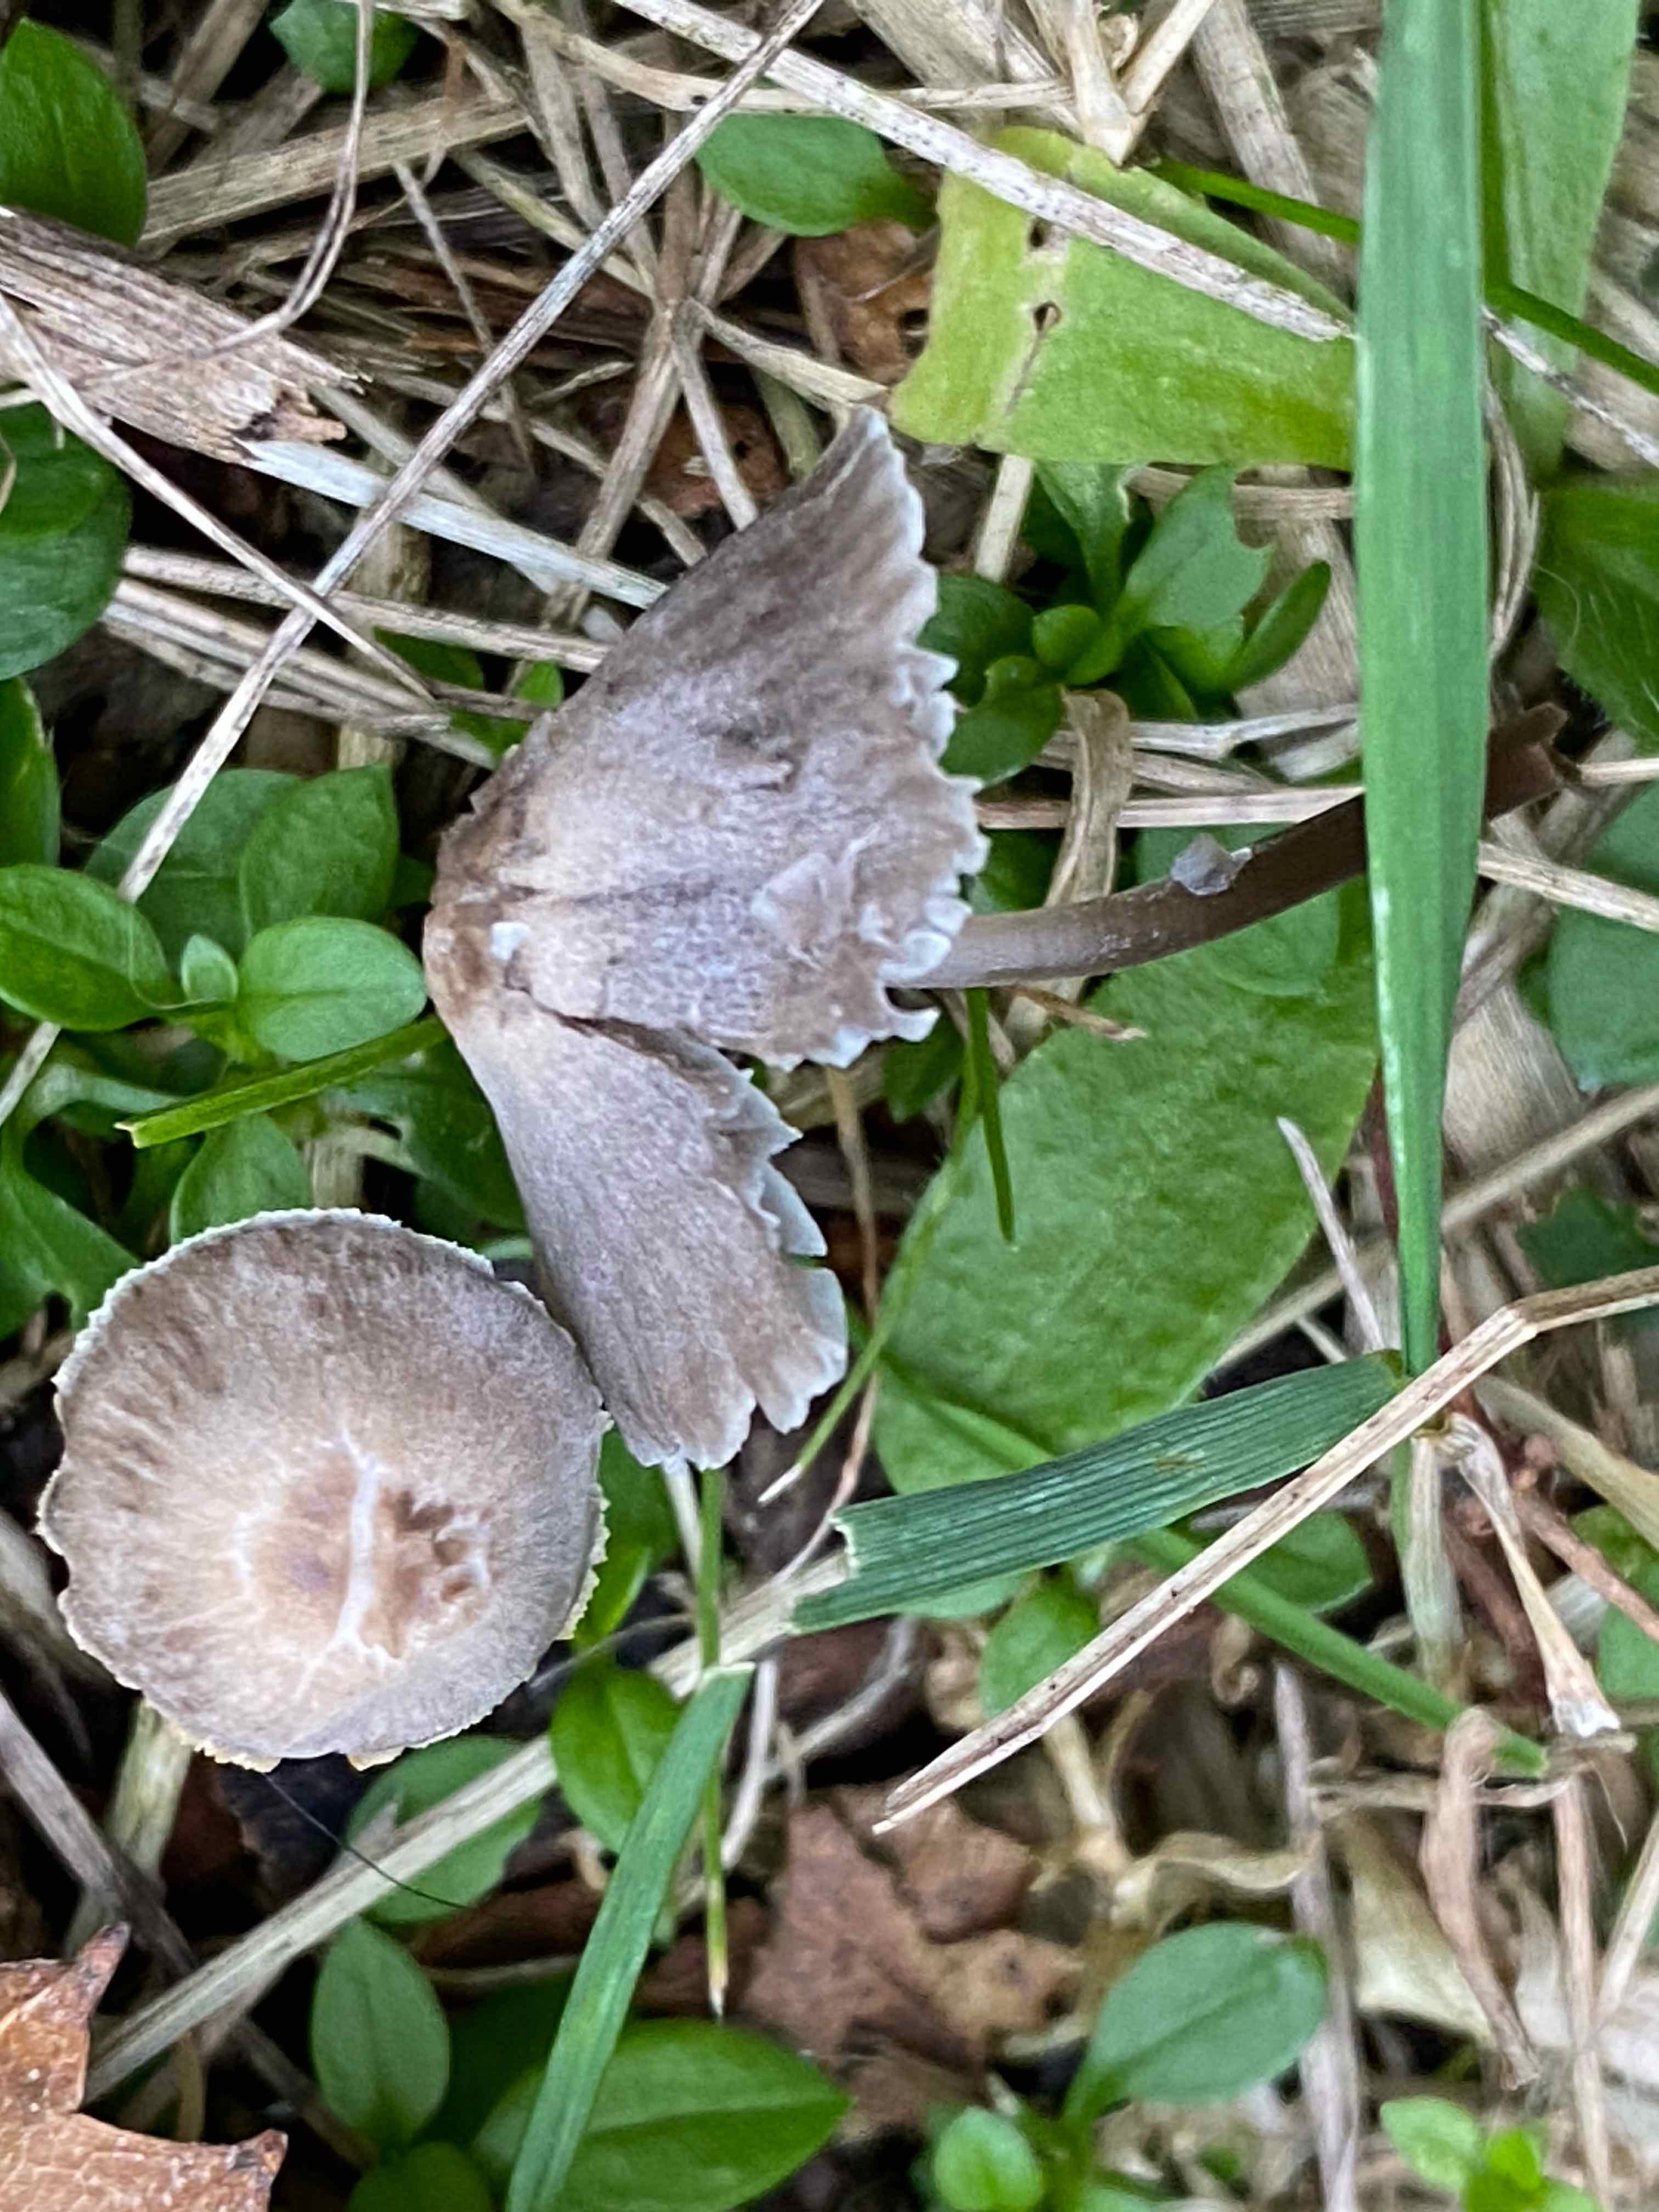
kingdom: Fungi
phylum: Basidiomycota
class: Agaricomycetes
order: Agaricales
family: Mycenaceae
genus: Mycena
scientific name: Mycena leptocephala
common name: klor-huesvamp
